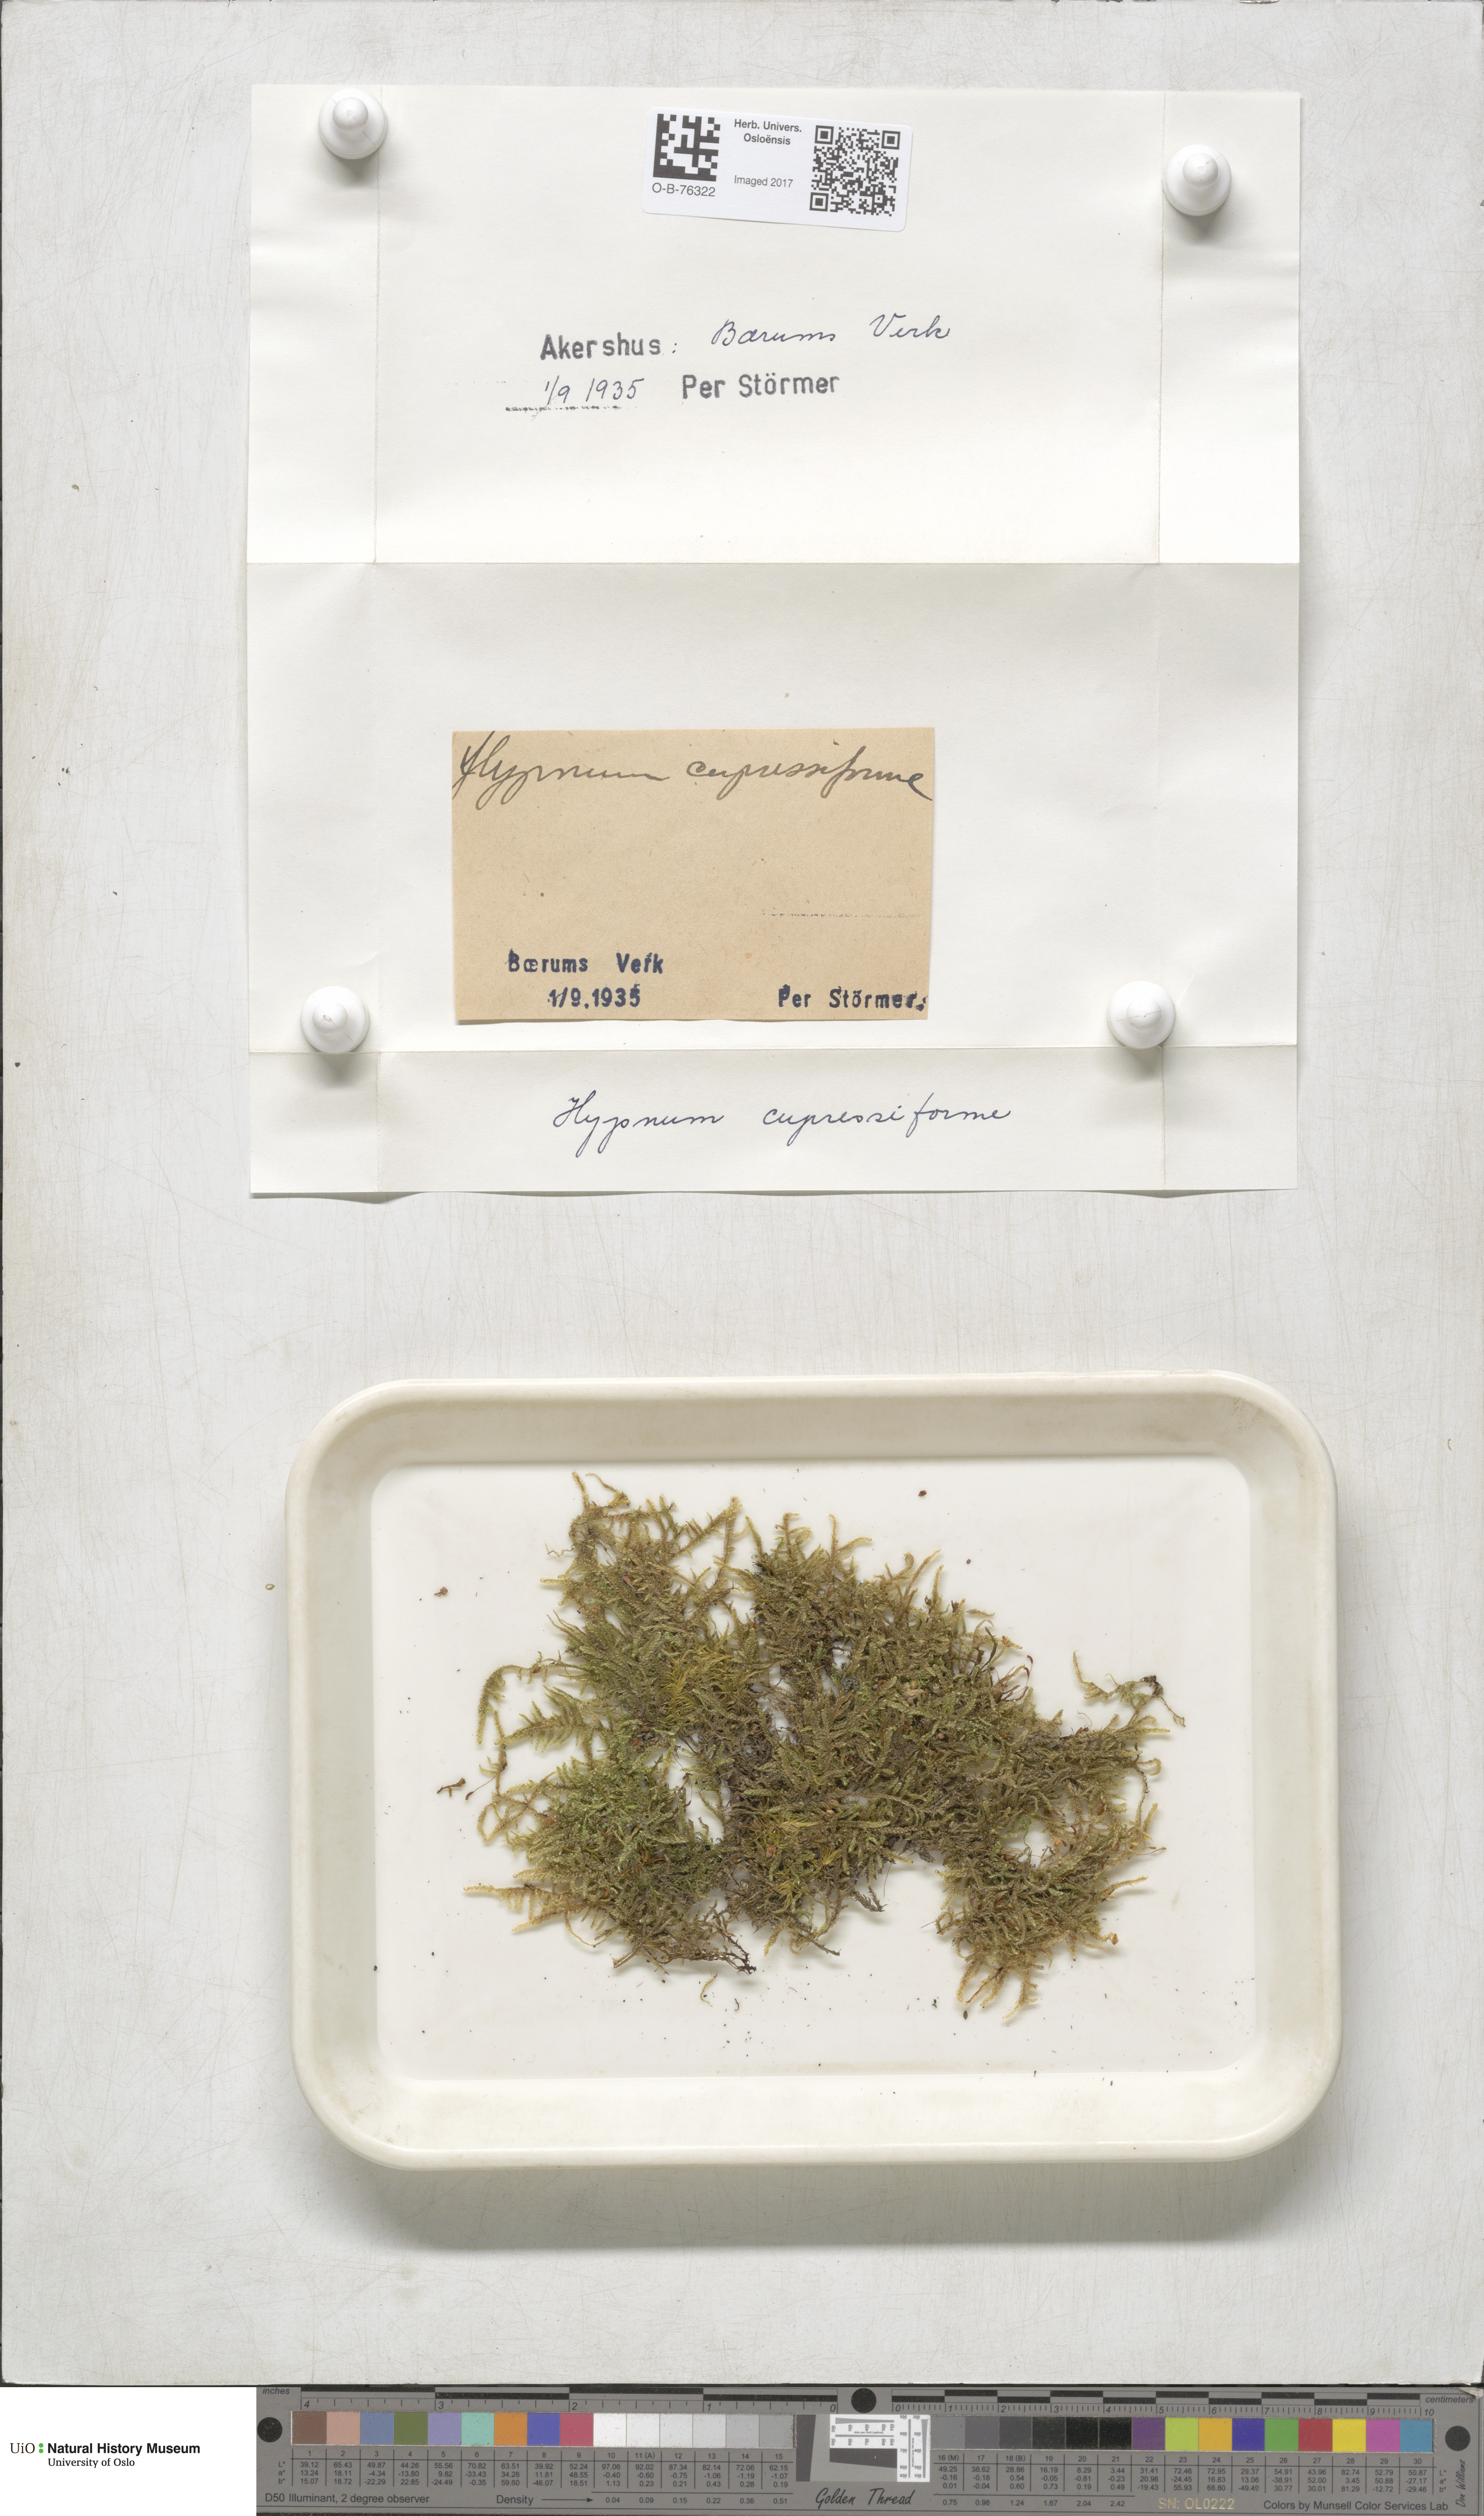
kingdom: Plantae
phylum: Bryophyta
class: Bryopsida
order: Hypnales
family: Hypnaceae
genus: Hypnum
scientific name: Hypnum cupressiforme
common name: Cypress-leaved plait-moss
